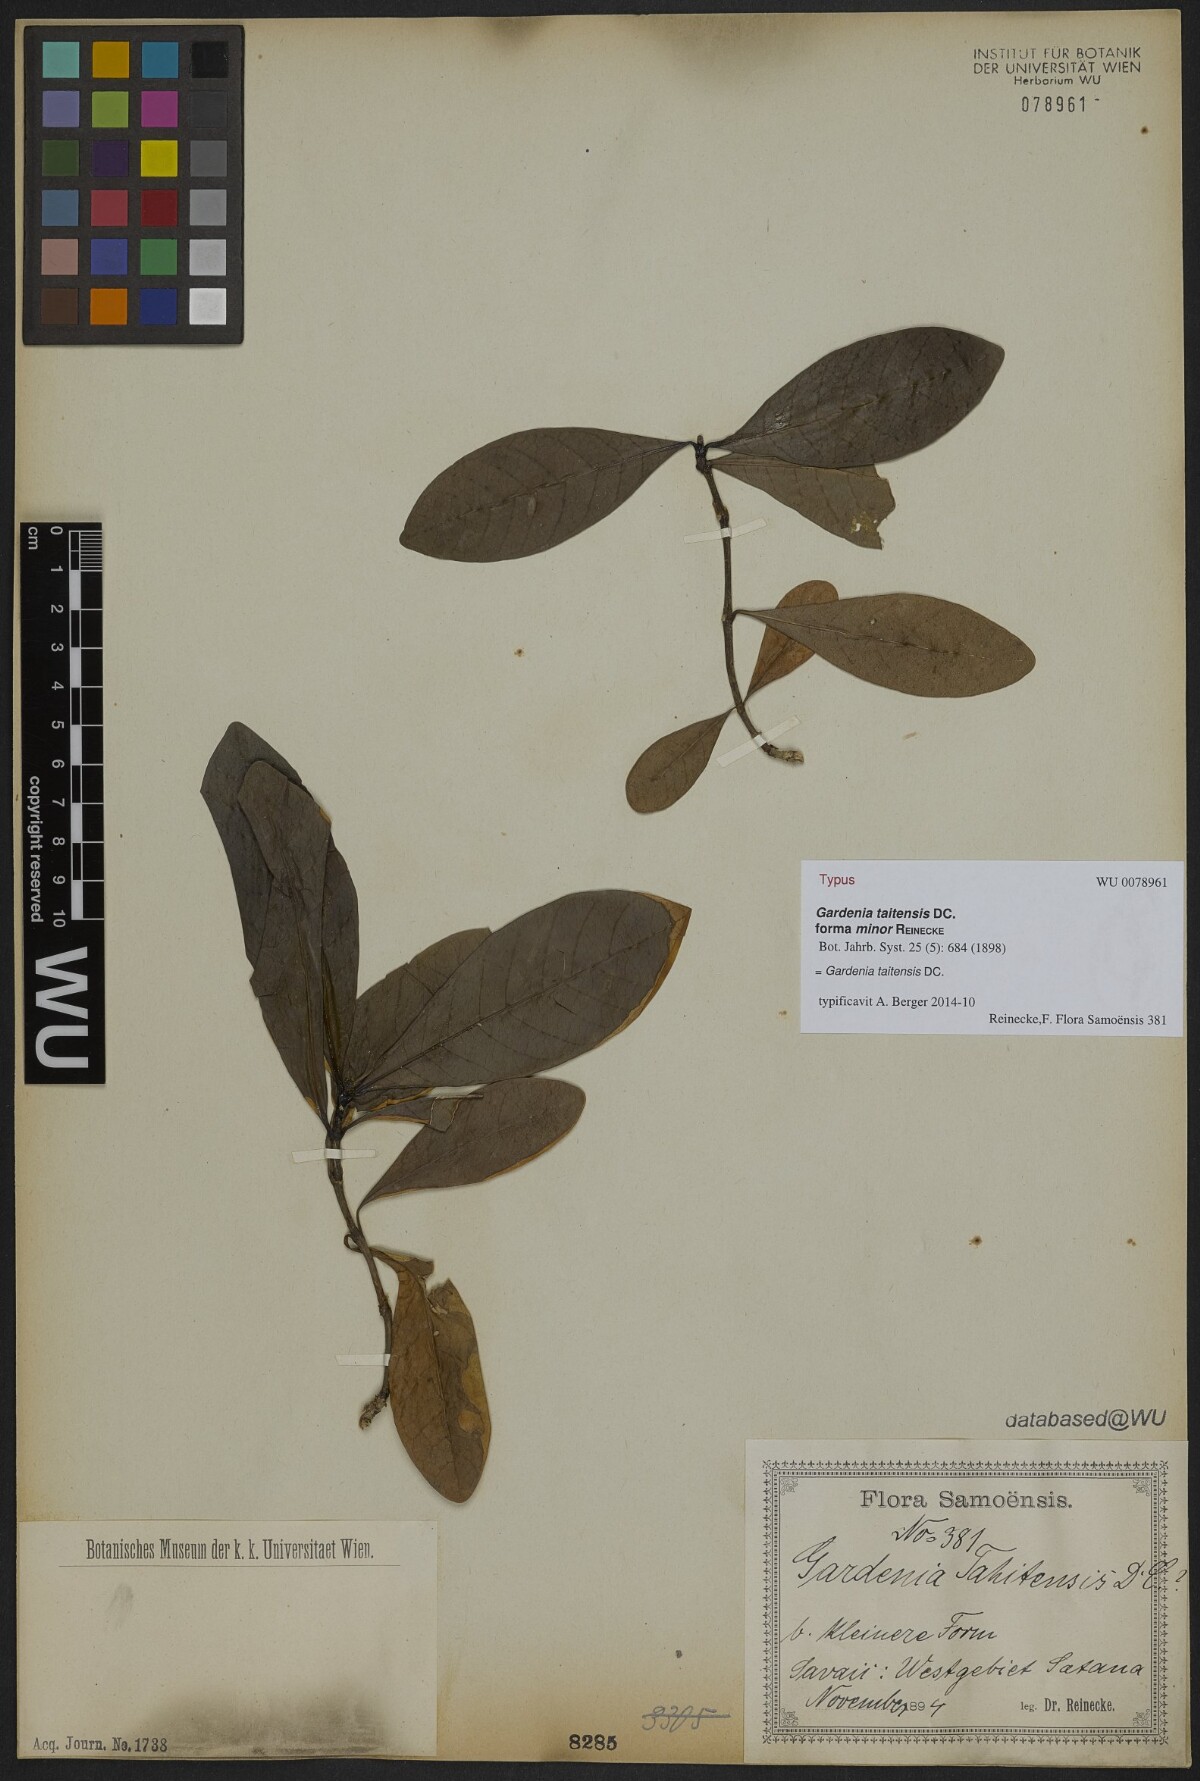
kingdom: Plantae
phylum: Tracheophyta
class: Magnoliopsida
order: Gentianales
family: Rubiaceae
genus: Gardenia
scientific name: Gardenia taitensis
